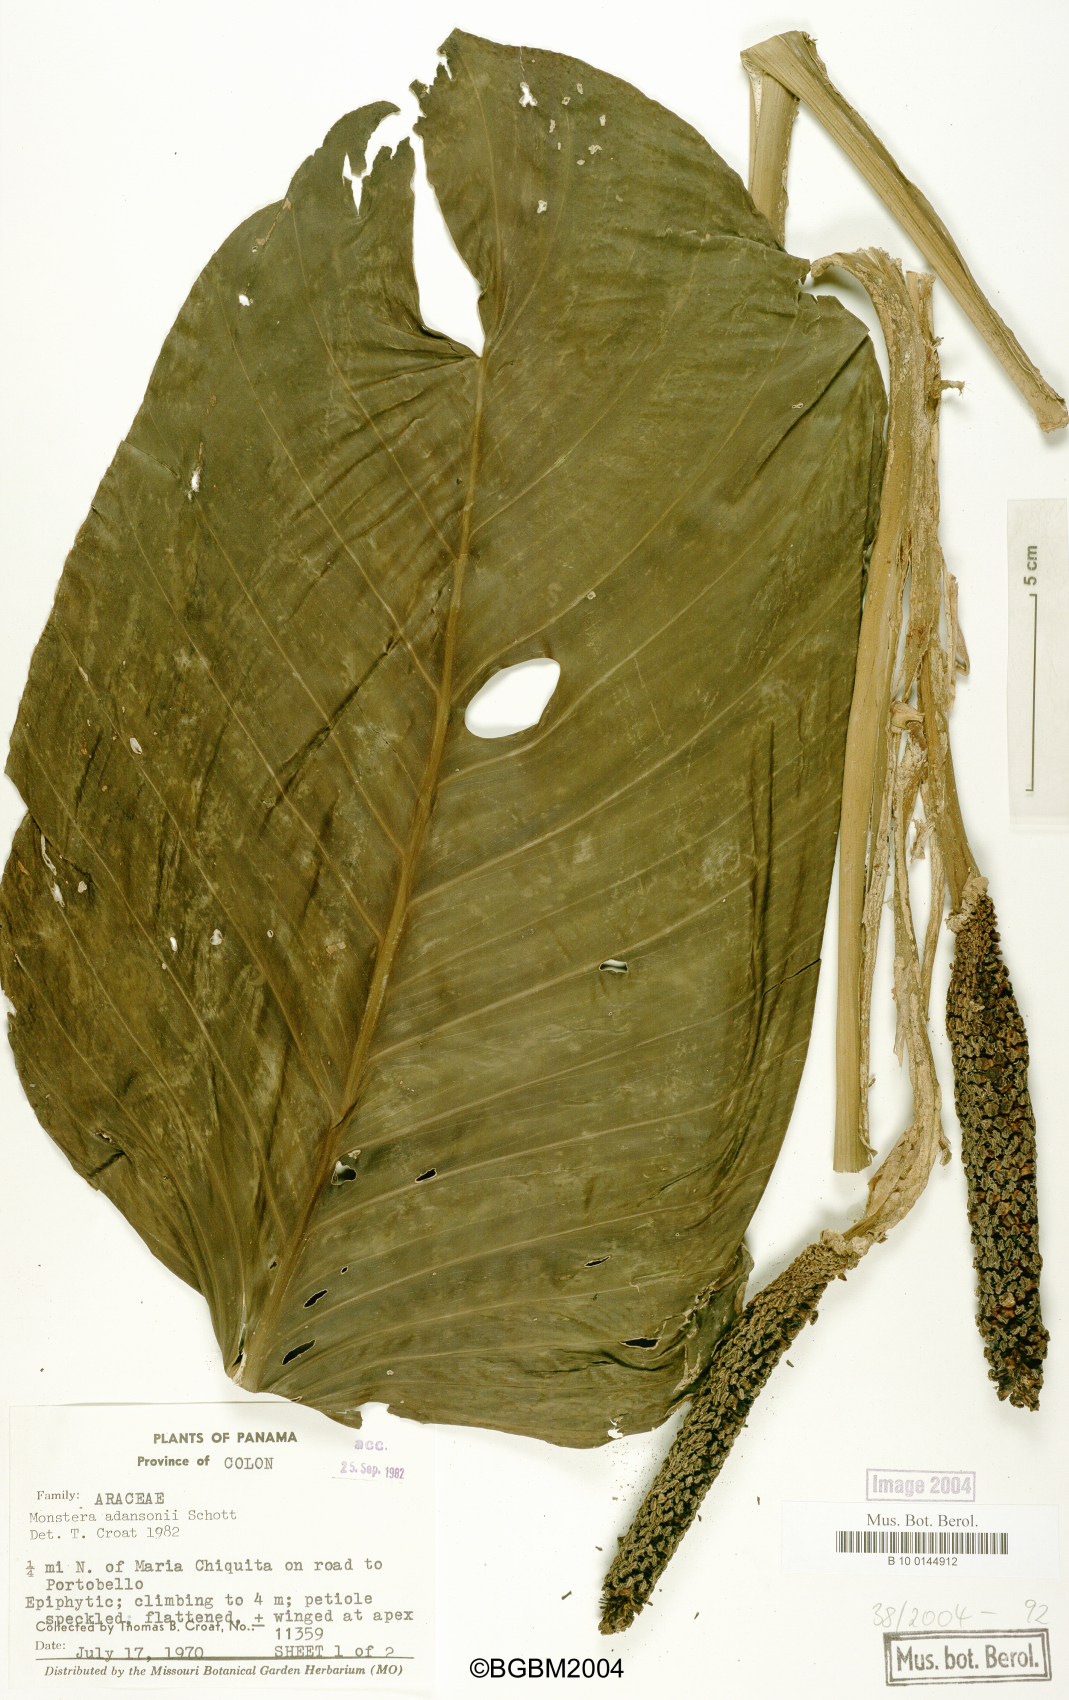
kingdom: Plantae
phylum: Tracheophyta
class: Liliopsida
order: Alismatales
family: Araceae
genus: Monstera
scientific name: Monstera adansonii
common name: Tarovine
